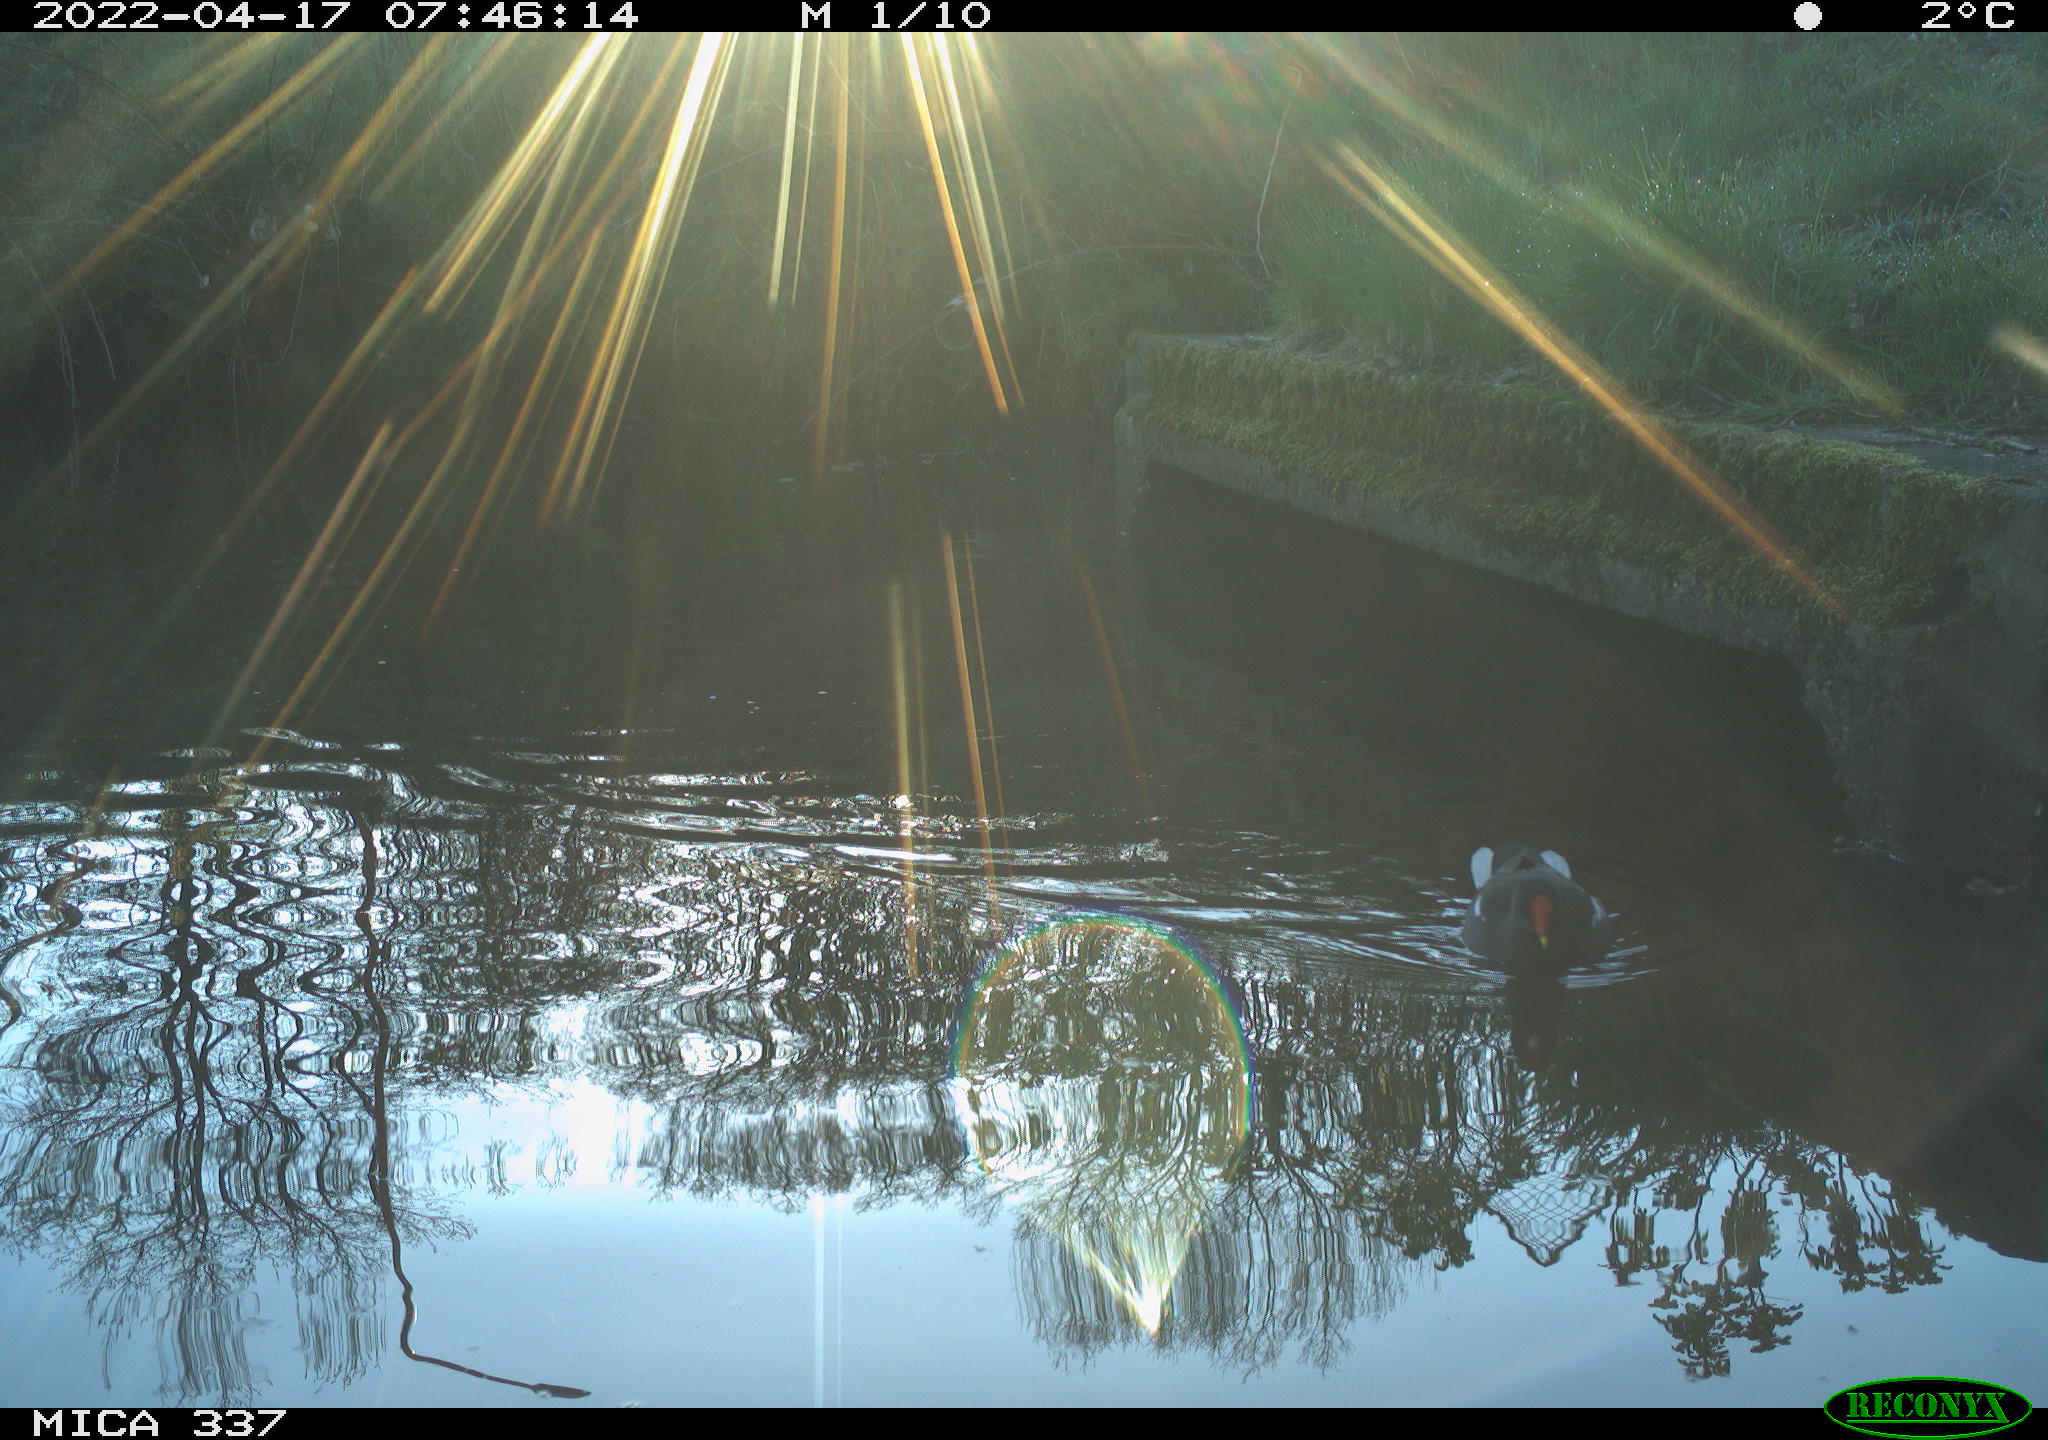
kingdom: Animalia
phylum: Chordata
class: Aves
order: Gruiformes
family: Rallidae
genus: Gallinula
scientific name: Gallinula chloropus
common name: Common moorhen
